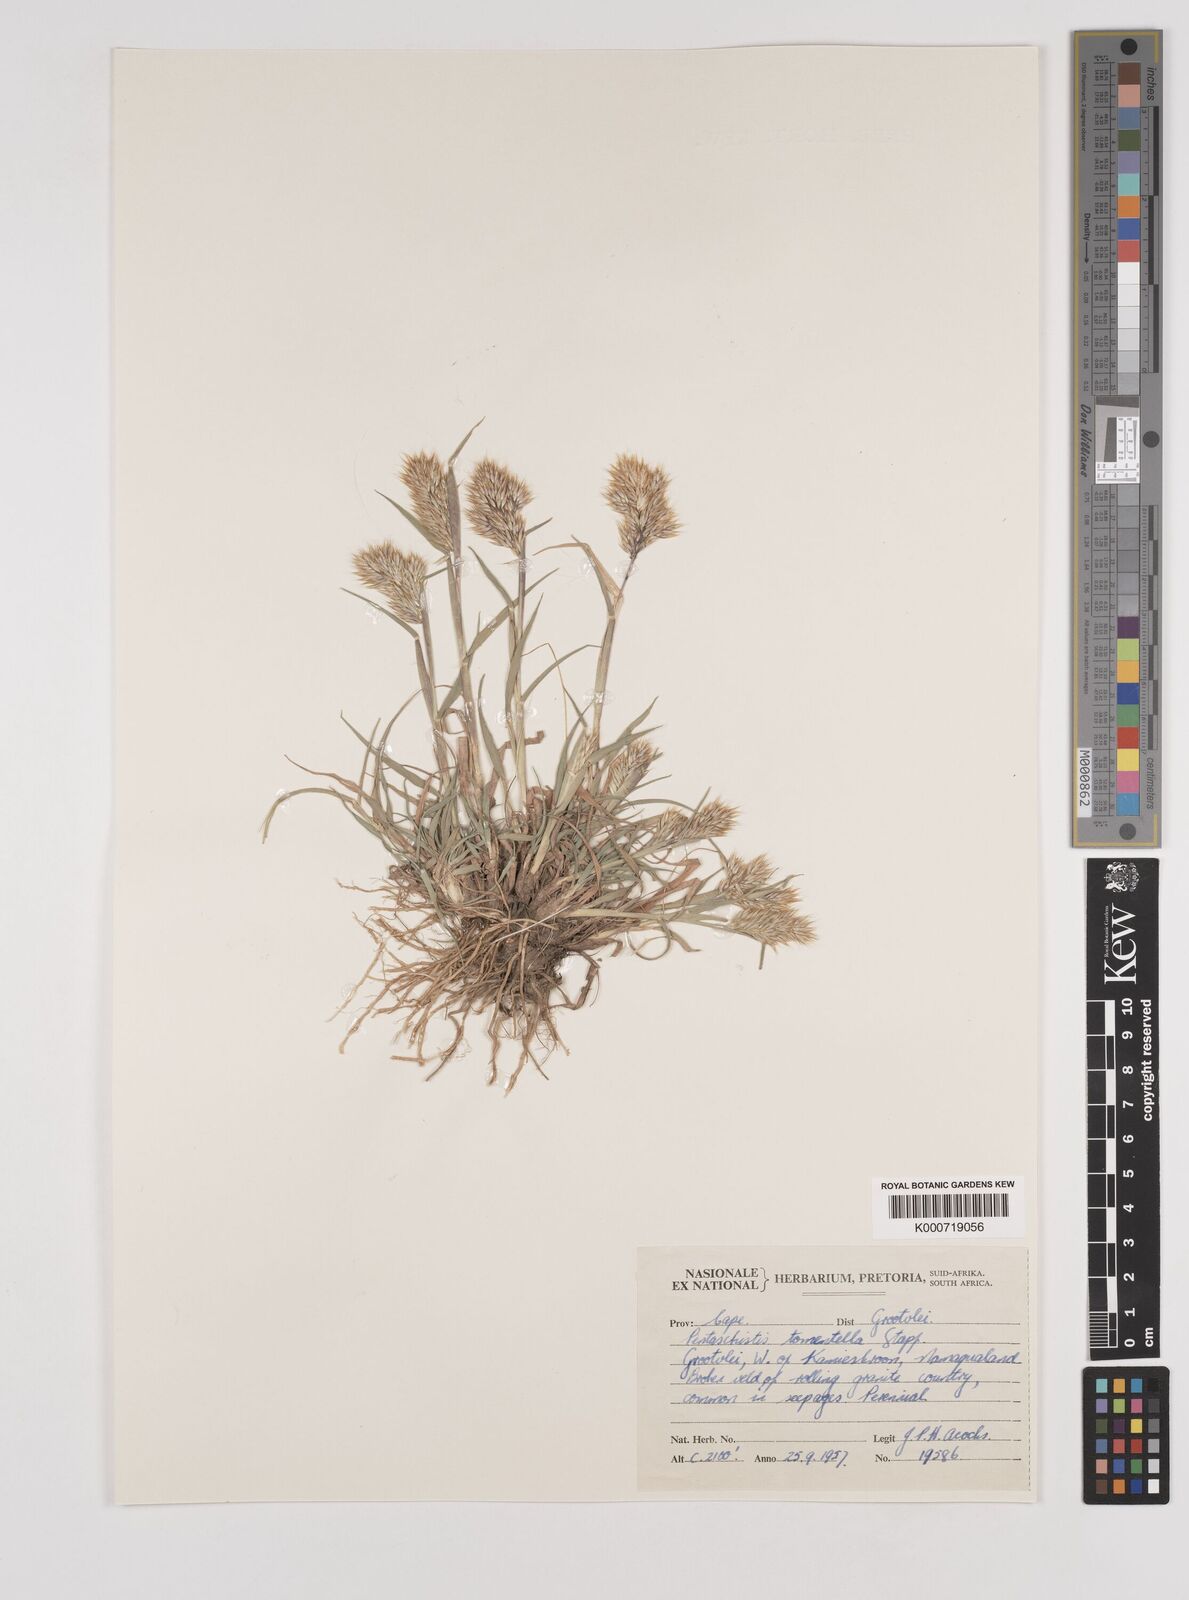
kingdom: Plantae
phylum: Tracheophyta
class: Liliopsida
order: Poales
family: Poaceae
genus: Pentameris
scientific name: Pentameris tomentella
